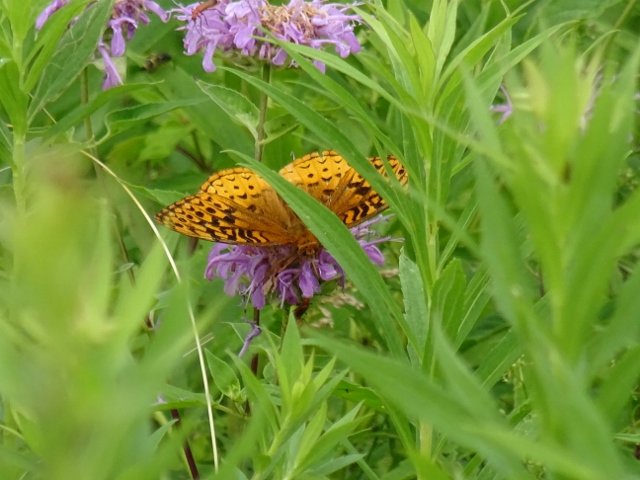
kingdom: Animalia
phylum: Arthropoda
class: Insecta
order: Lepidoptera
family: Nymphalidae
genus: Speyeria
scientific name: Speyeria cybele
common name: Great Spangled Fritillary
